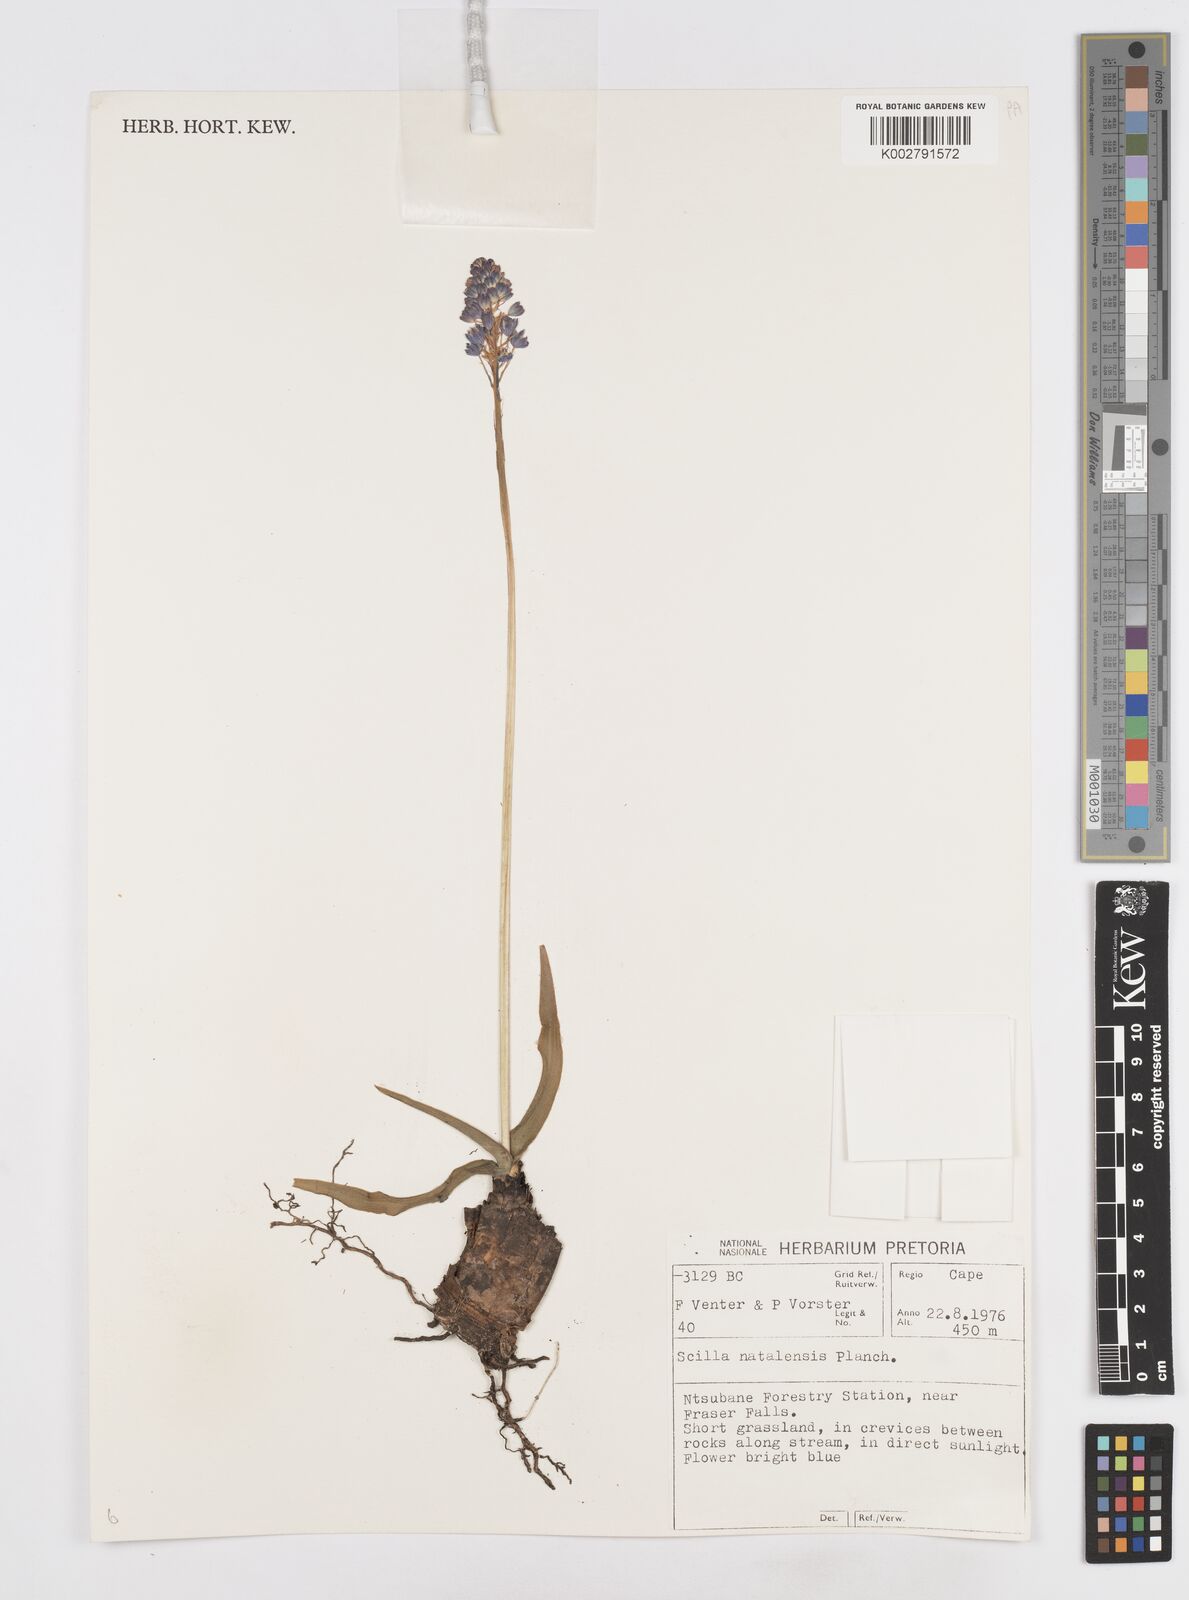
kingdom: Plantae
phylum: Tracheophyta
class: Liliopsida
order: Asparagales
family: Asparagaceae
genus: Merwilla
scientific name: Merwilla plumbea
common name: Blue-squill
